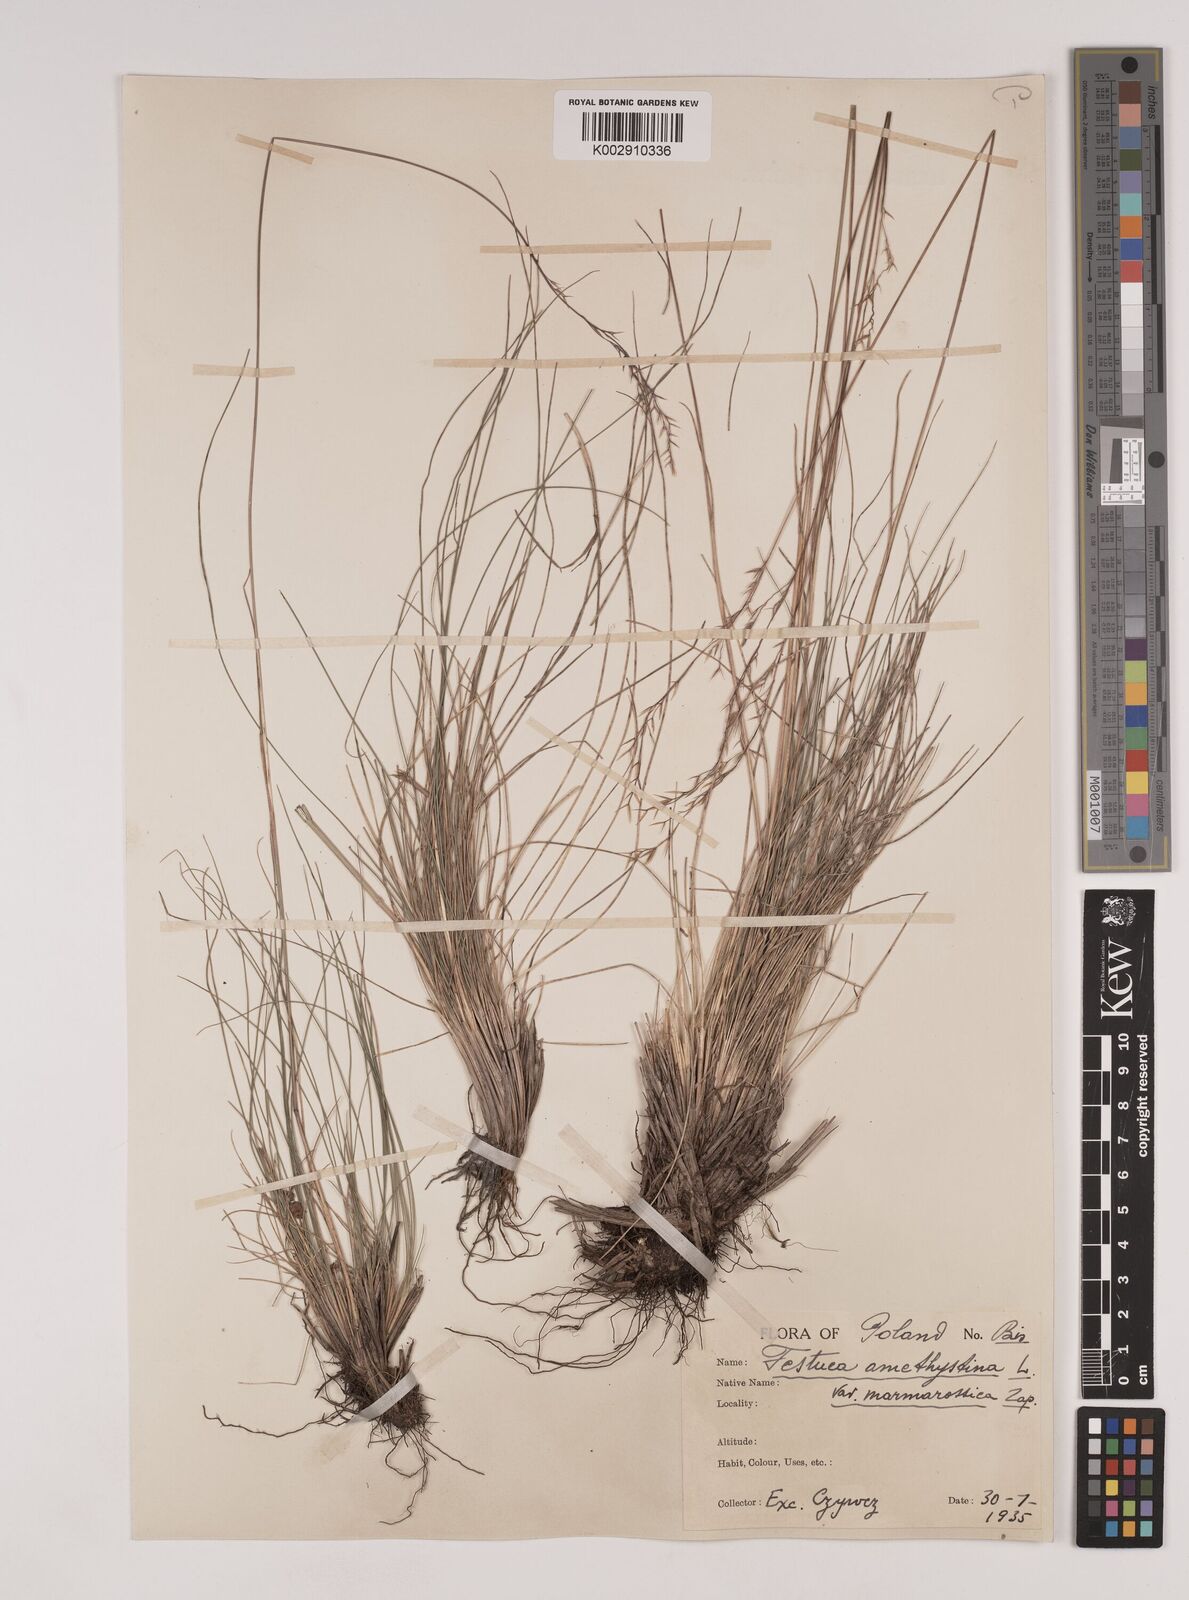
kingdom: Plantae
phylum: Tracheophyta
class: Liliopsida
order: Poales
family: Poaceae
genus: Festuca
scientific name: Festuca amethystina
